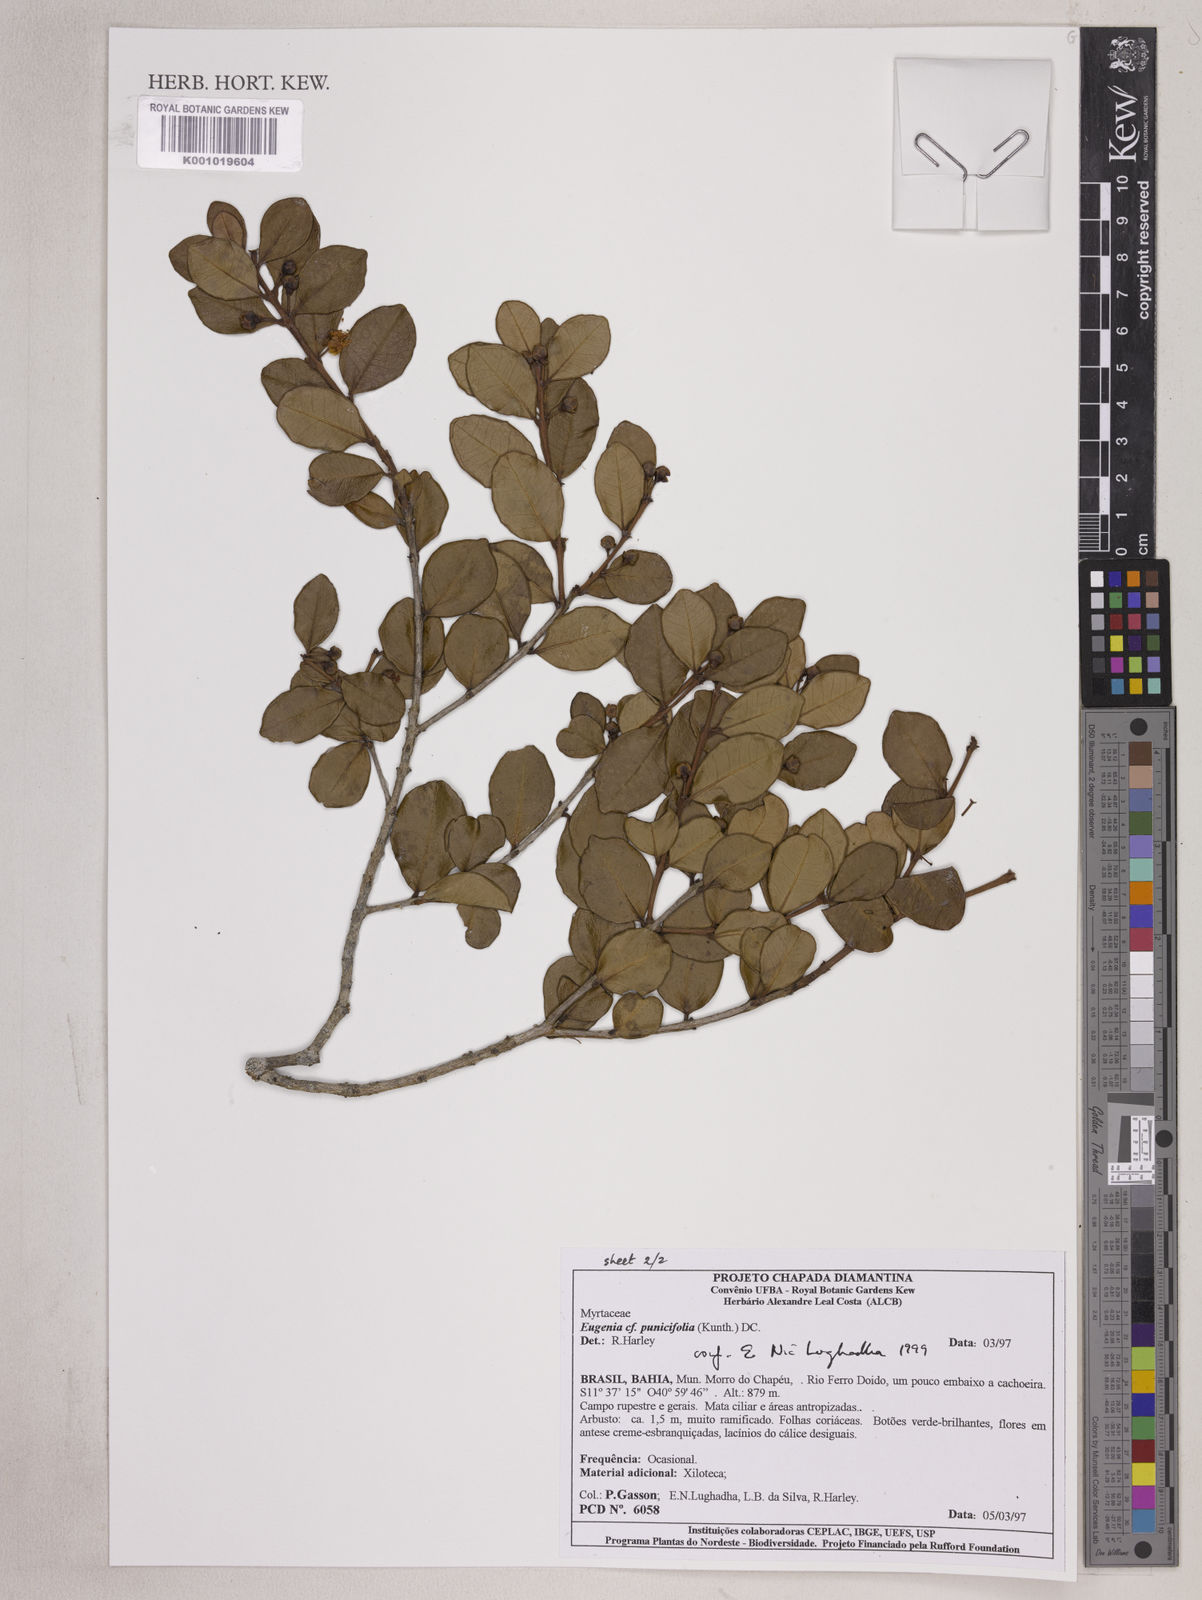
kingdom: Plantae
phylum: Tracheophyta
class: Magnoliopsida
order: Myrtales
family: Myrtaceae
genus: Eugenia
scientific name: Eugenia punicifolia
